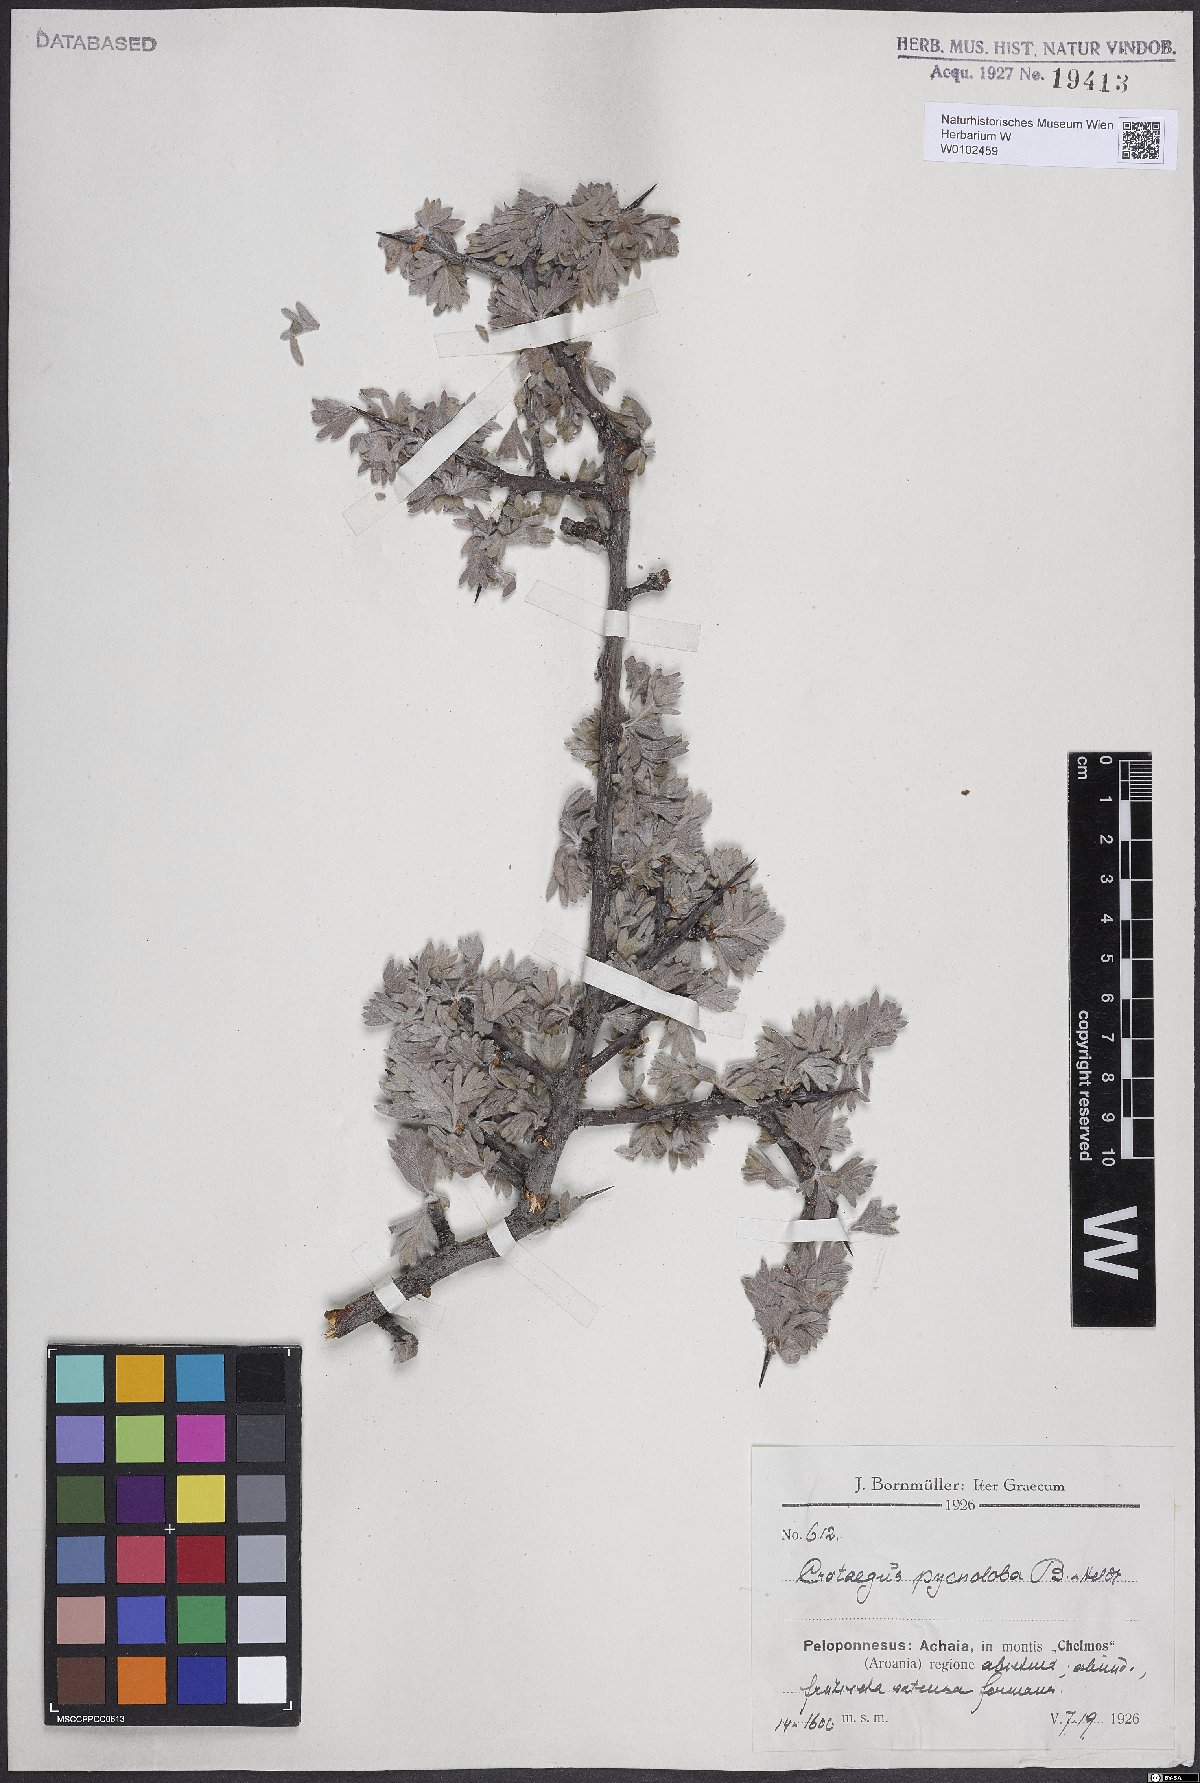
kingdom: Plantae
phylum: Tracheophyta
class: Magnoliopsida
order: Rosales
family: Rosaceae
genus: Crataegus
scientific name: Crataegus pycnoloba
